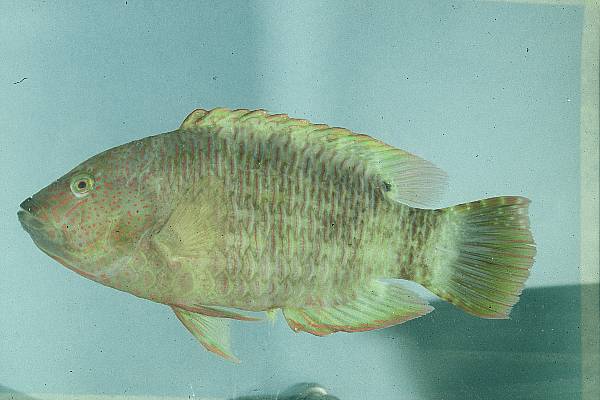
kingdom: Animalia
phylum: Chordata
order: Perciformes
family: Labridae
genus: Cheilinus
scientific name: Cheilinus trilobatus
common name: Tripletail maori wrasse
